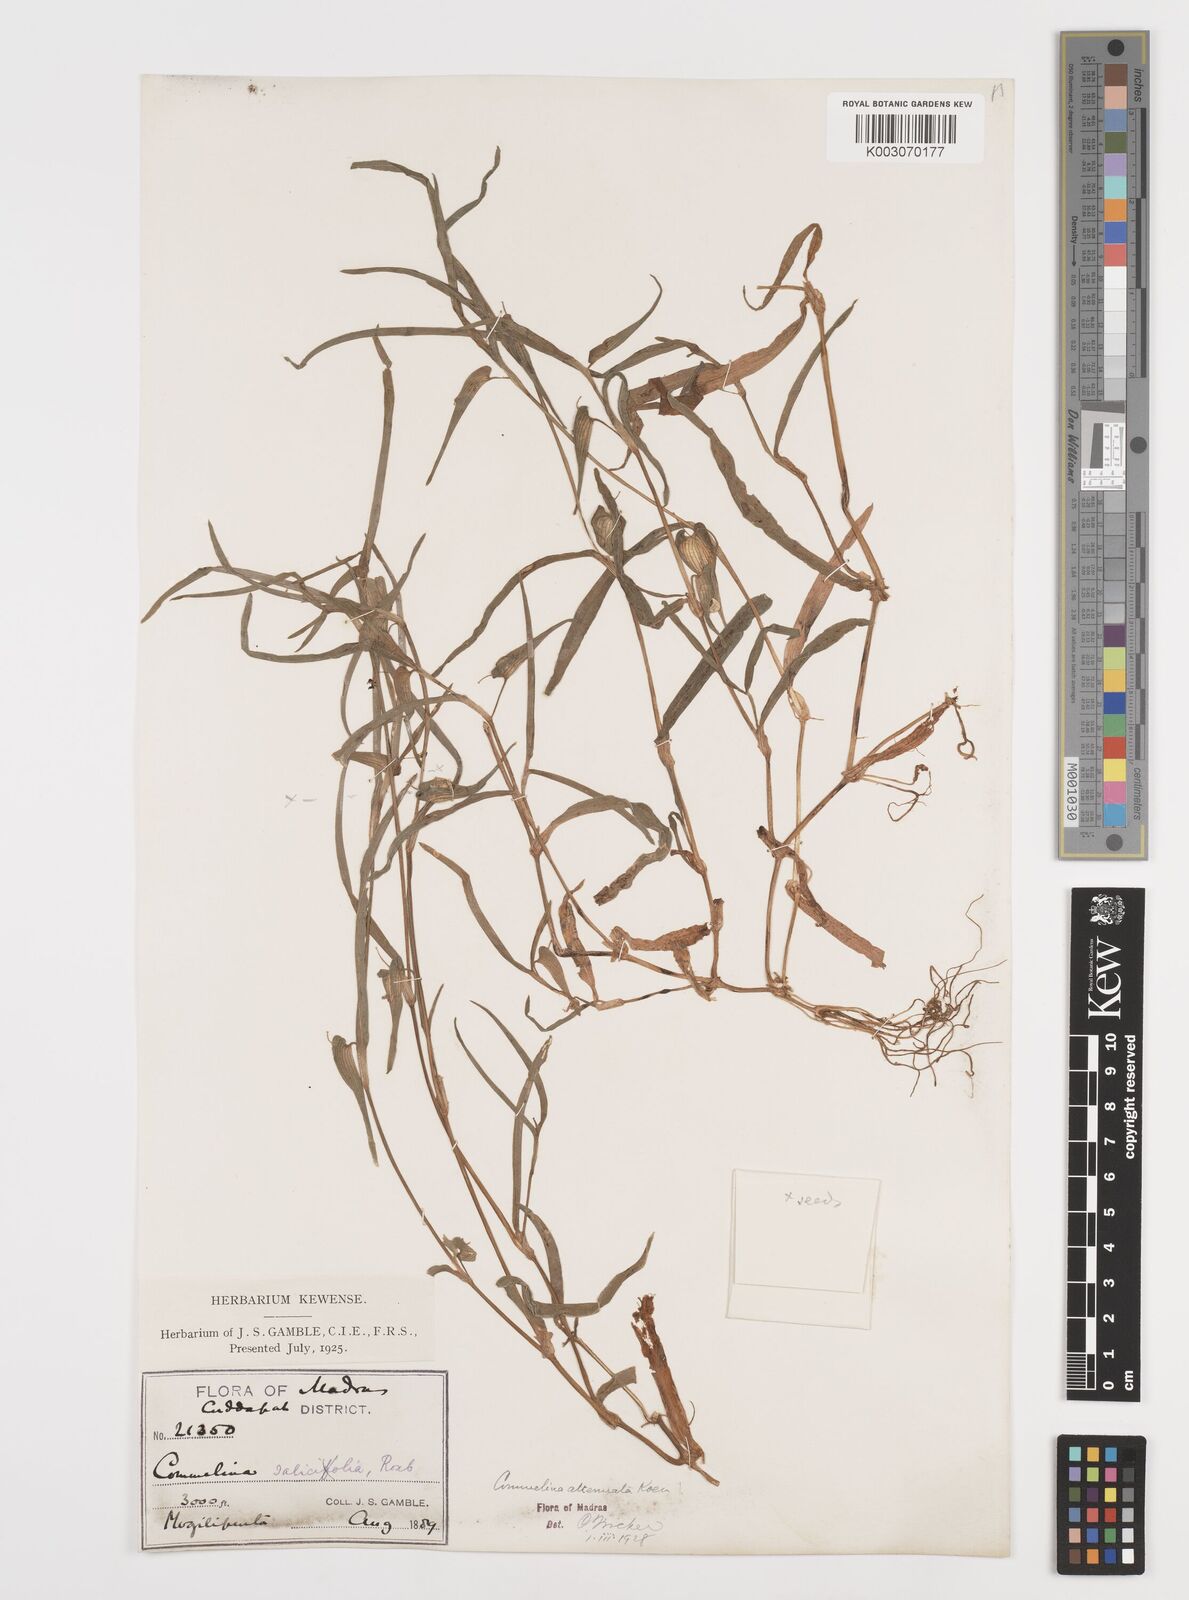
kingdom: Plantae
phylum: Tracheophyta
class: Liliopsida
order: Commelinales
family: Commelinaceae
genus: Commelina
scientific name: Commelina attenuata
